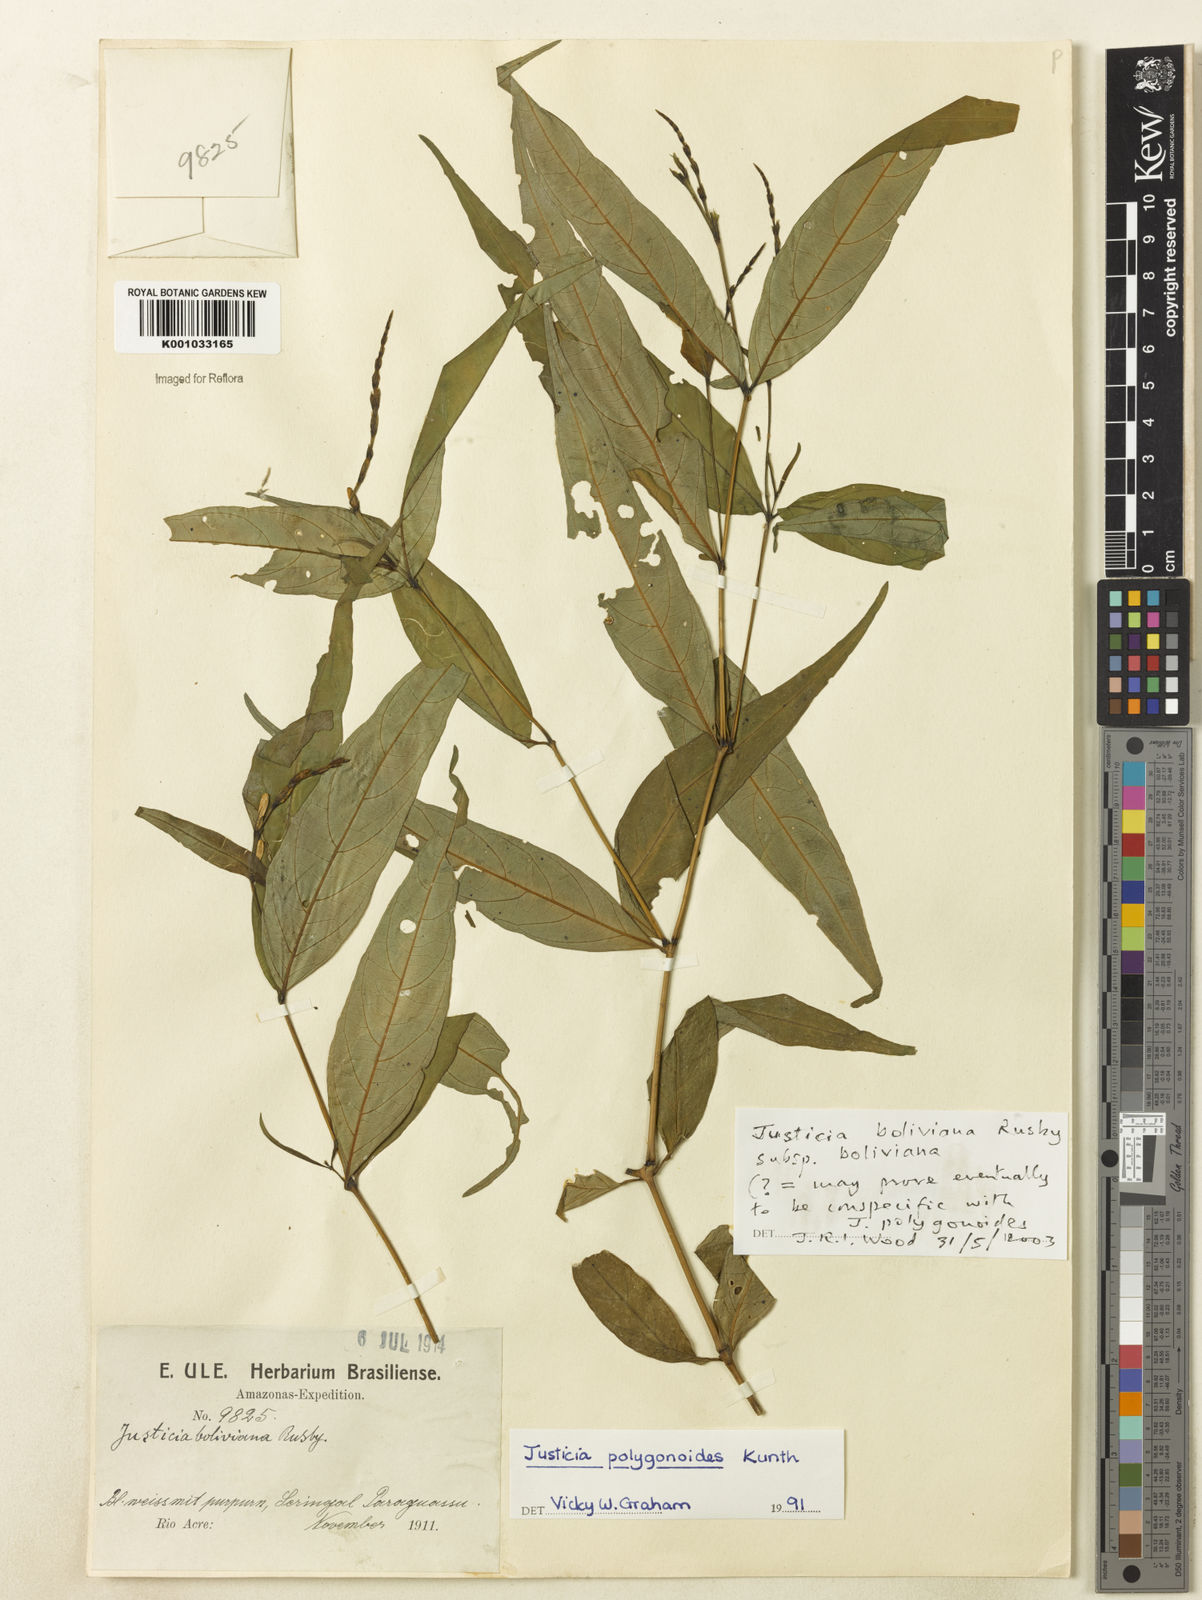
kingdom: Plantae
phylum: Tracheophyta
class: Magnoliopsida
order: Lamiales
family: Acanthaceae
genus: Justicia
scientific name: Justicia boliviana
